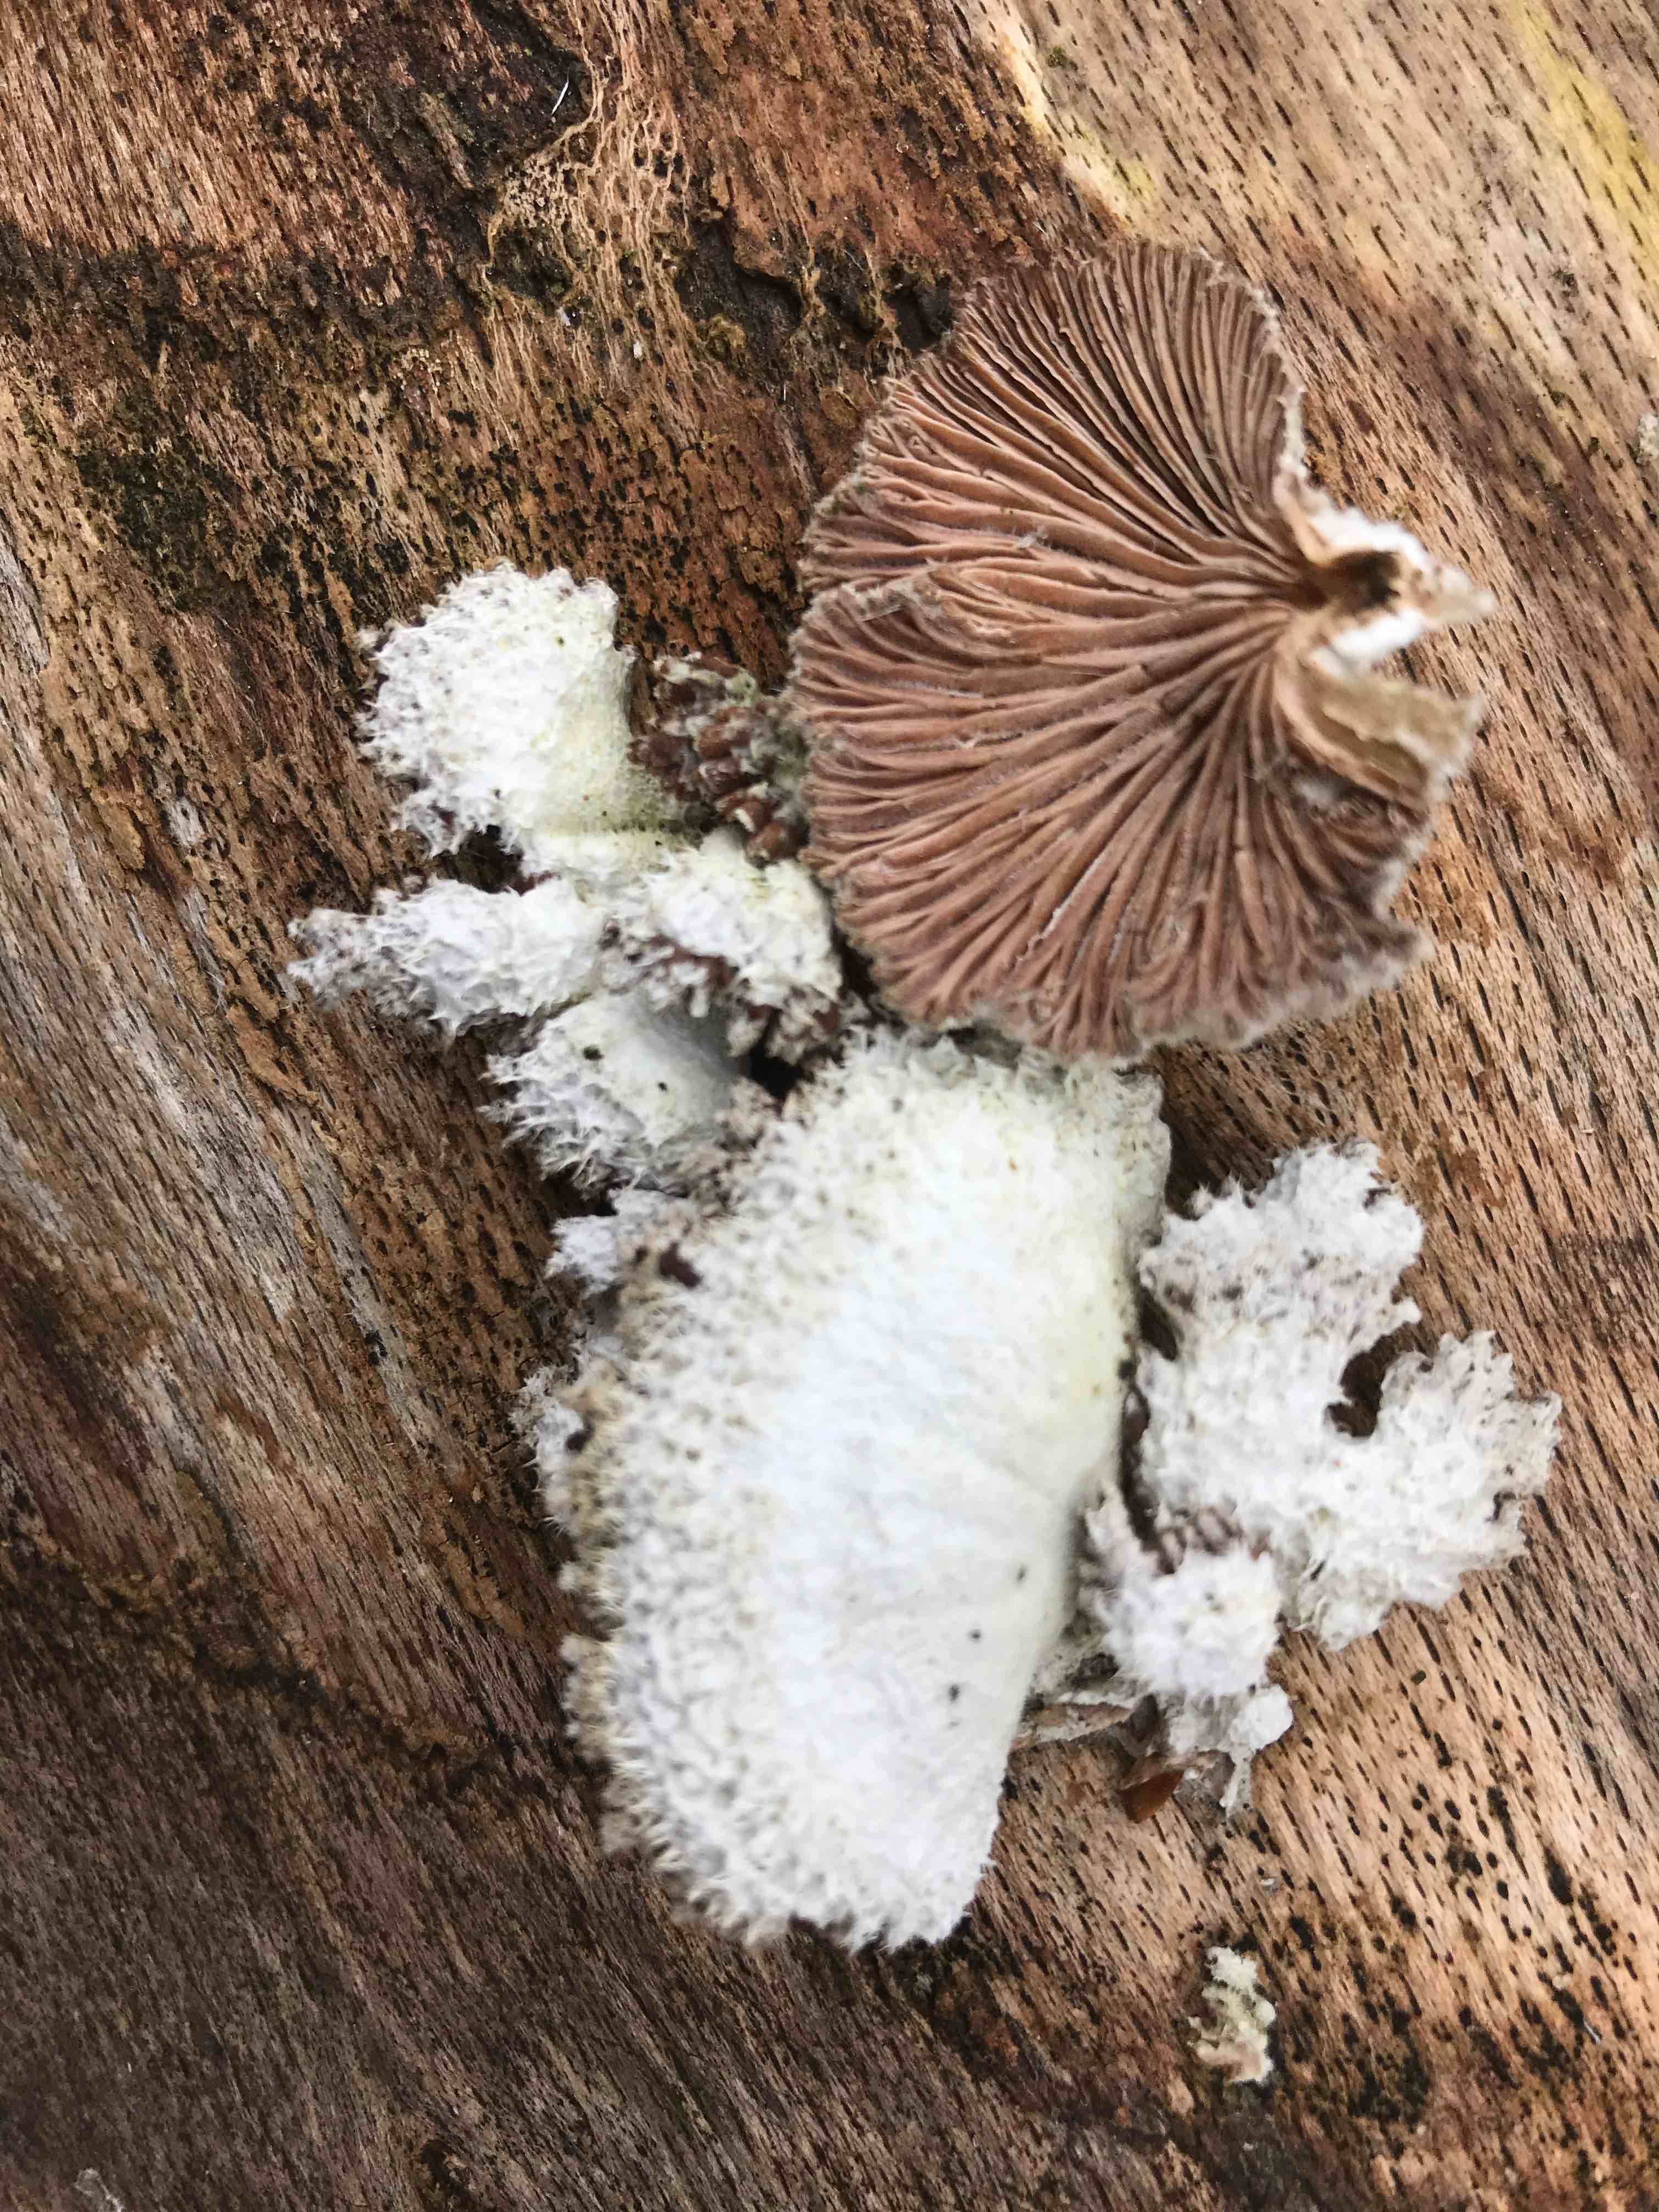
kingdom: Fungi
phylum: Basidiomycota
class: Agaricomycetes
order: Agaricales
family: Schizophyllaceae
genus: Schizophyllum
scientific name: Schizophyllum commune
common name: kløvblad
